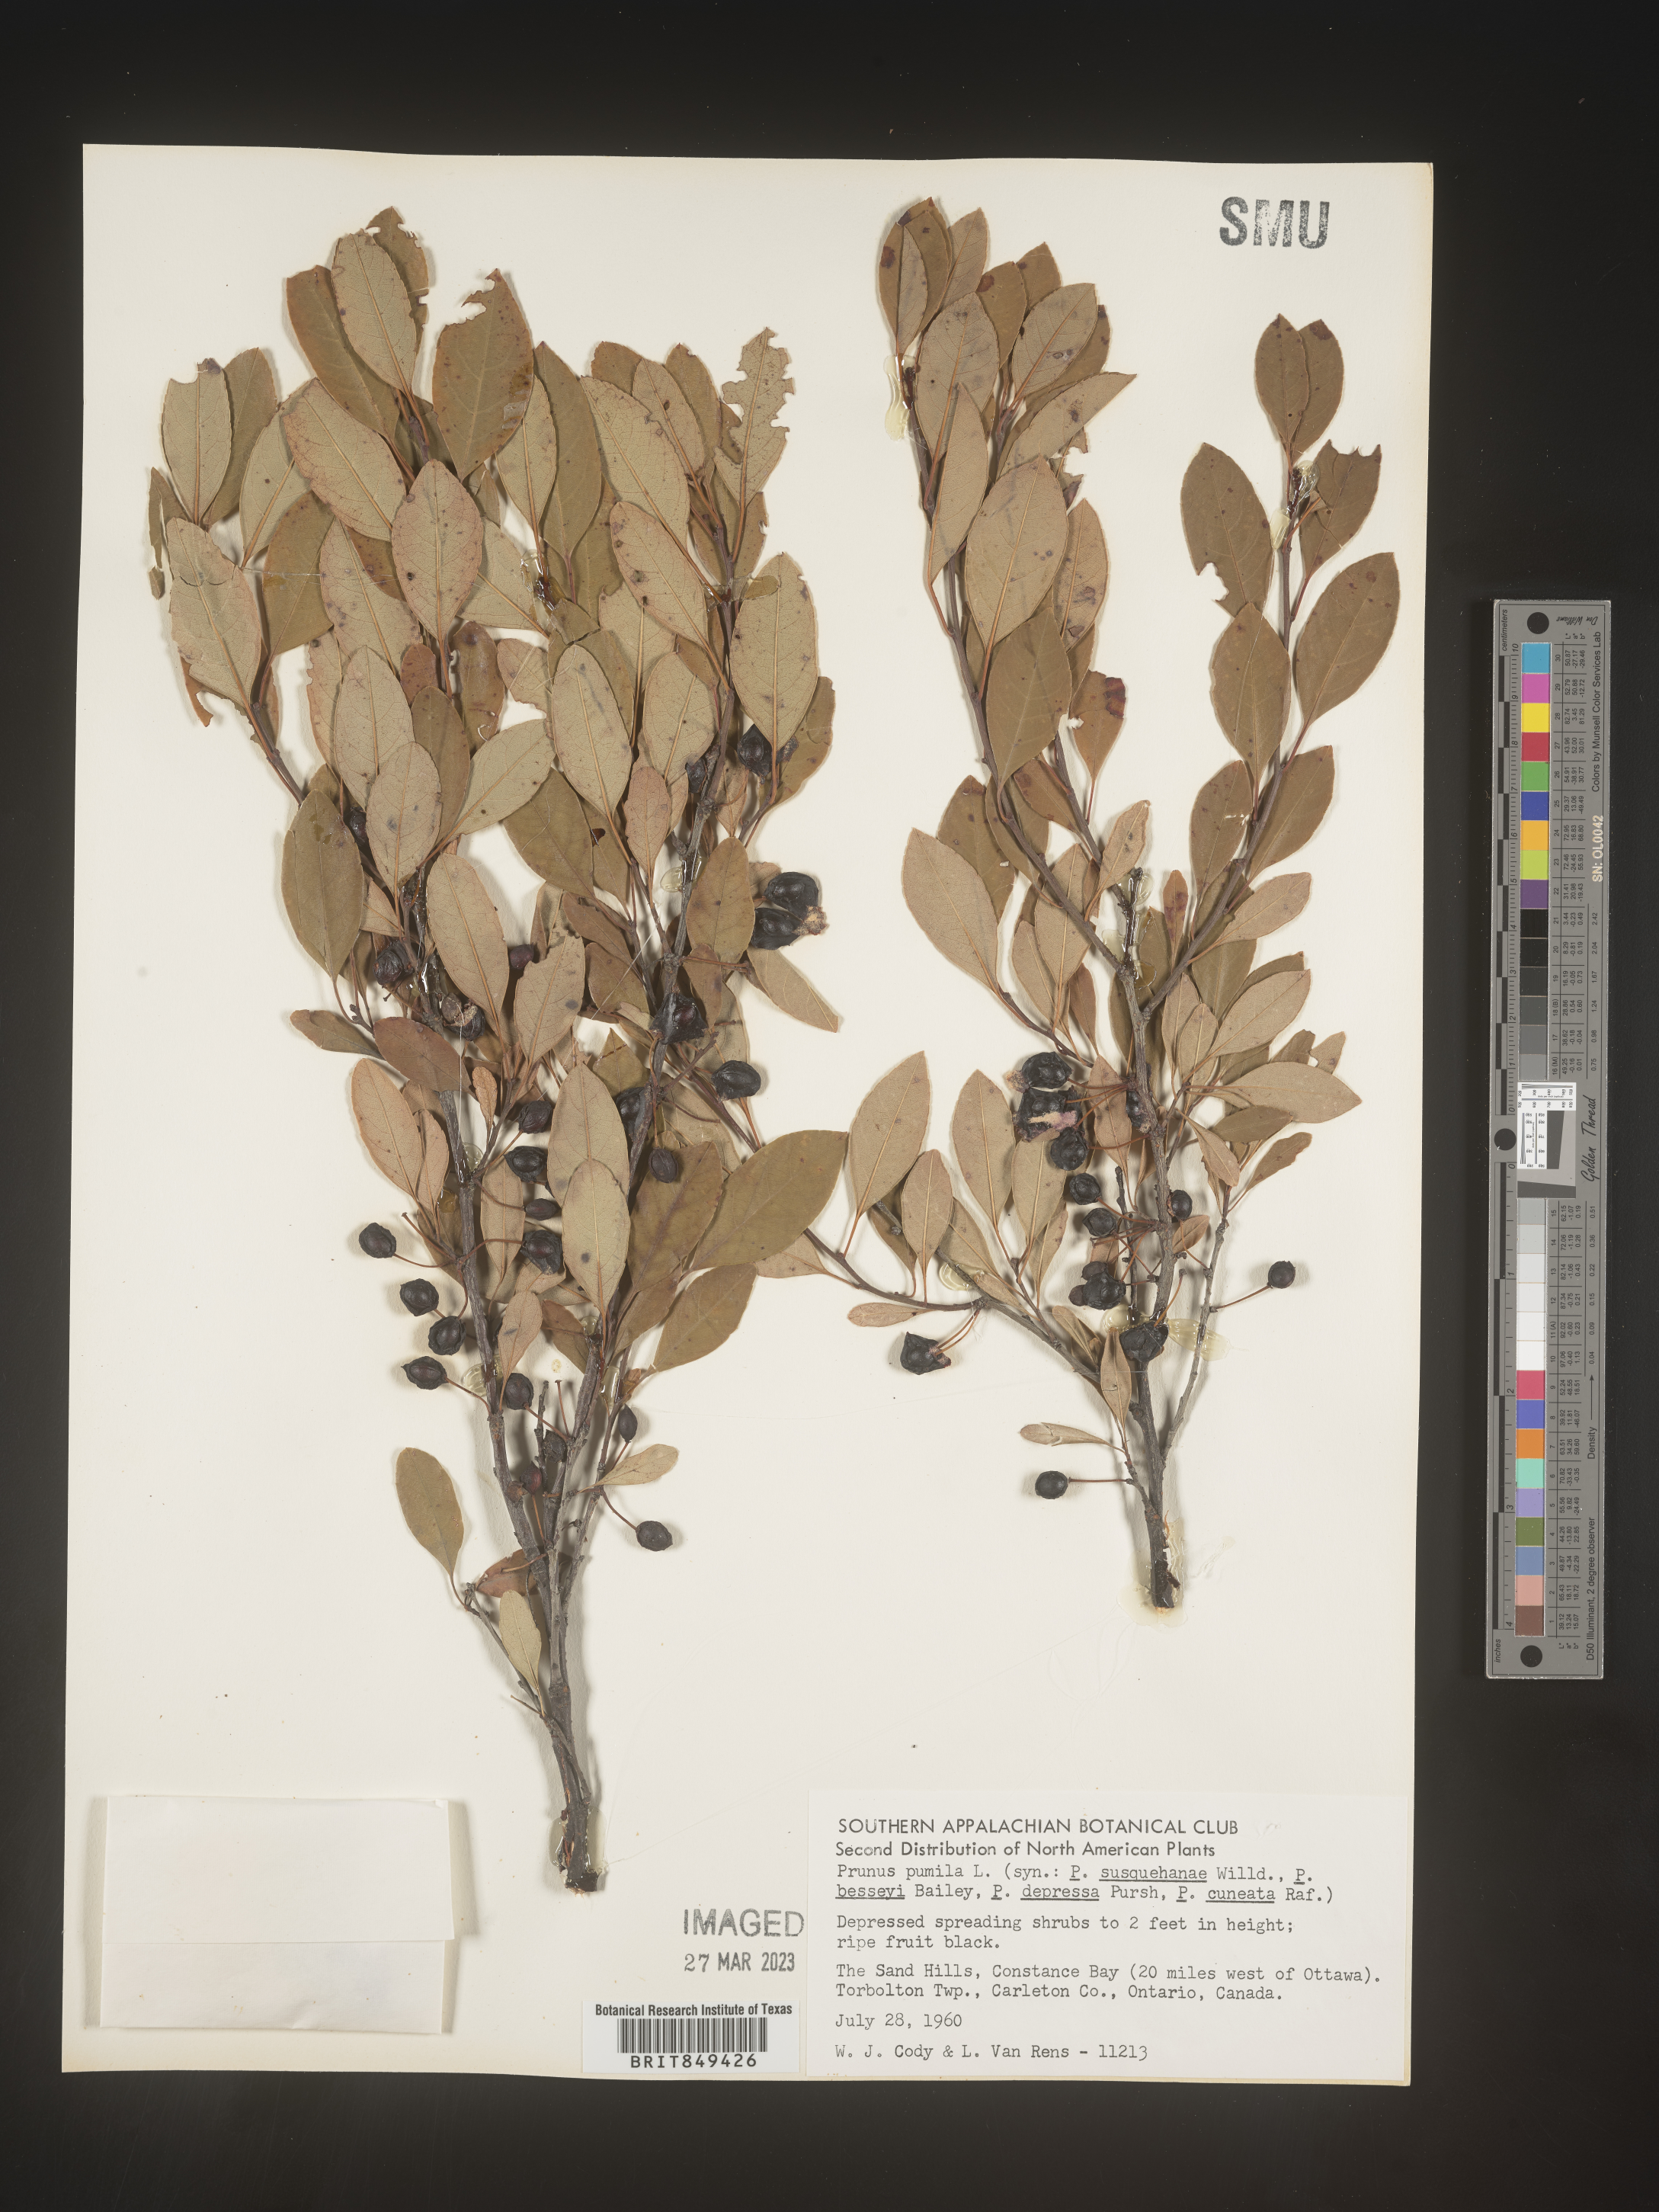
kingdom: Plantae
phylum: Tracheophyta
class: Magnoliopsida
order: Rosales
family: Rosaceae
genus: Prunus
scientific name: Prunus pumila
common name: Dwarf cherry
